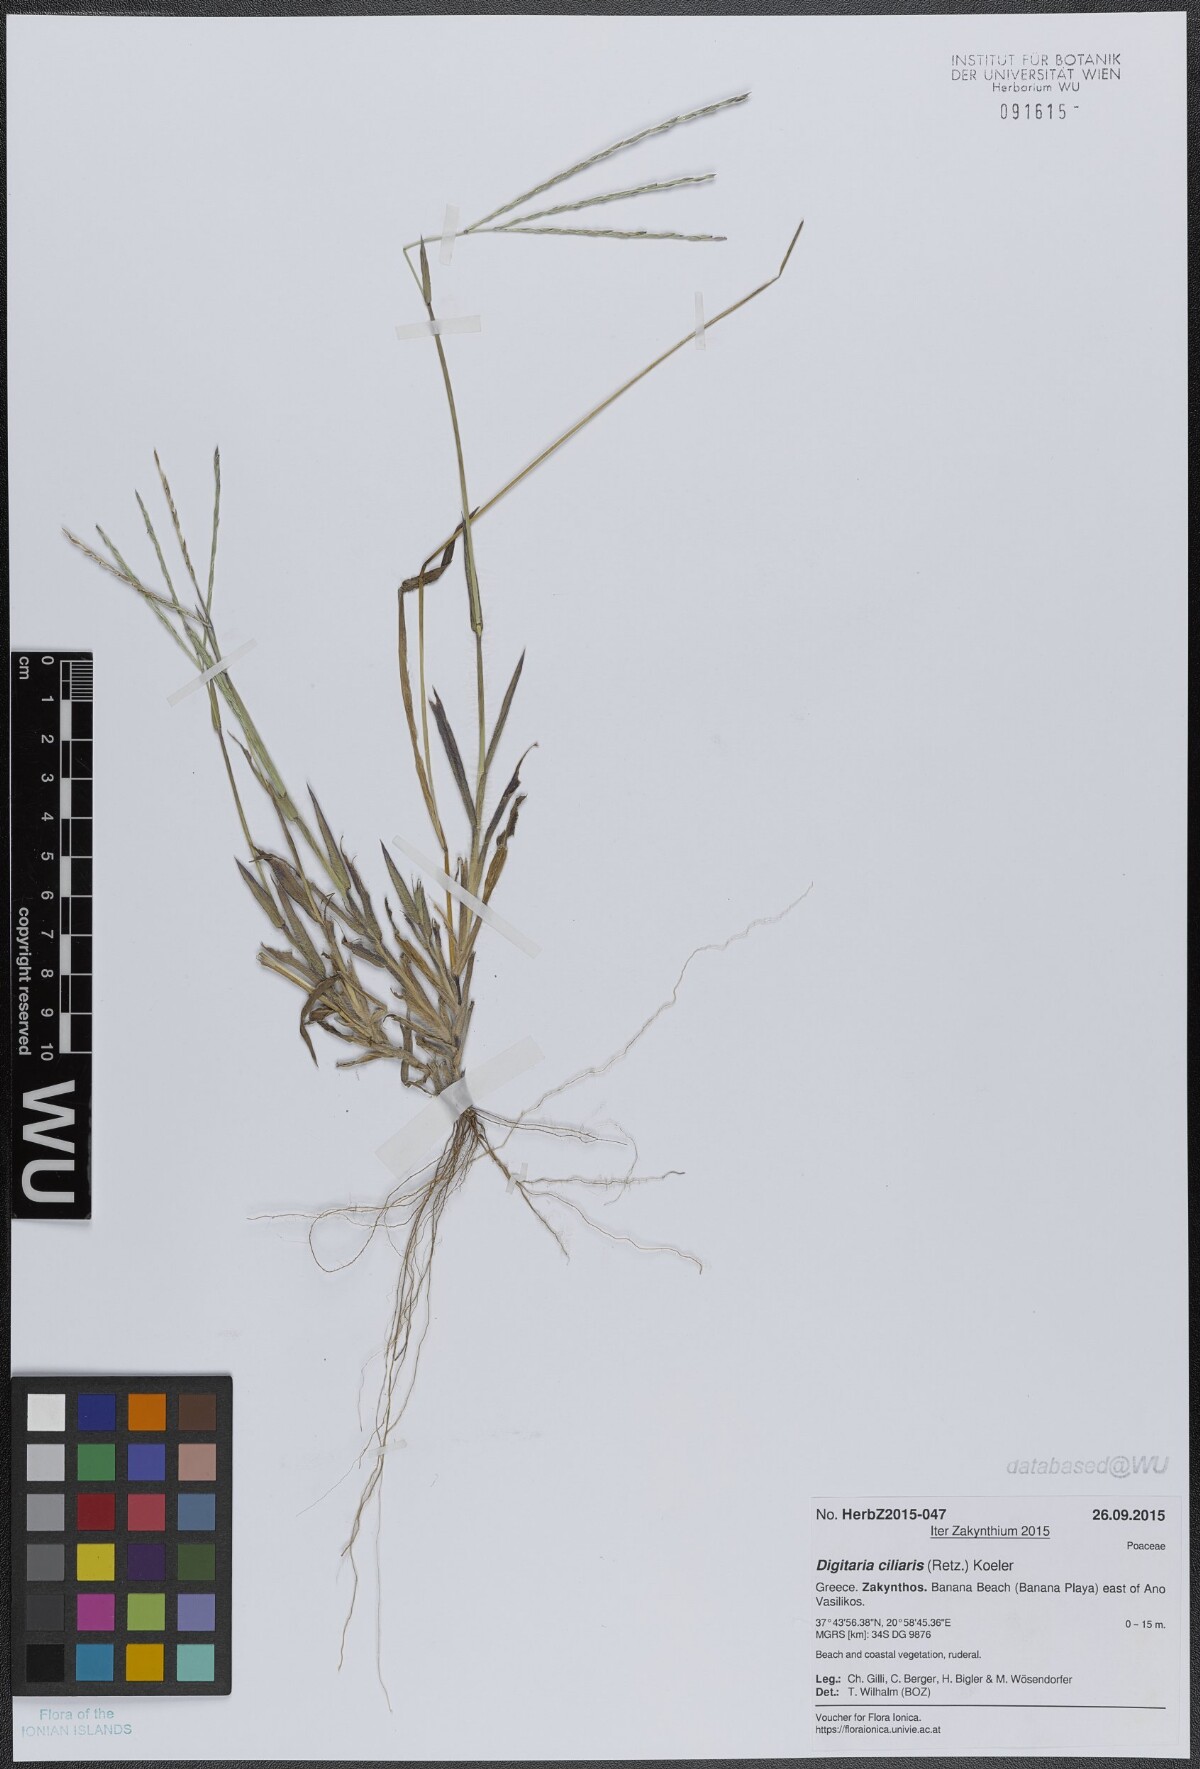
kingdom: Plantae
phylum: Tracheophyta
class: Liliopsida
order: Poales
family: Poaceae
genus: Digitaria
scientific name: Digitaria ciliaris
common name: Tropical finger-grass
